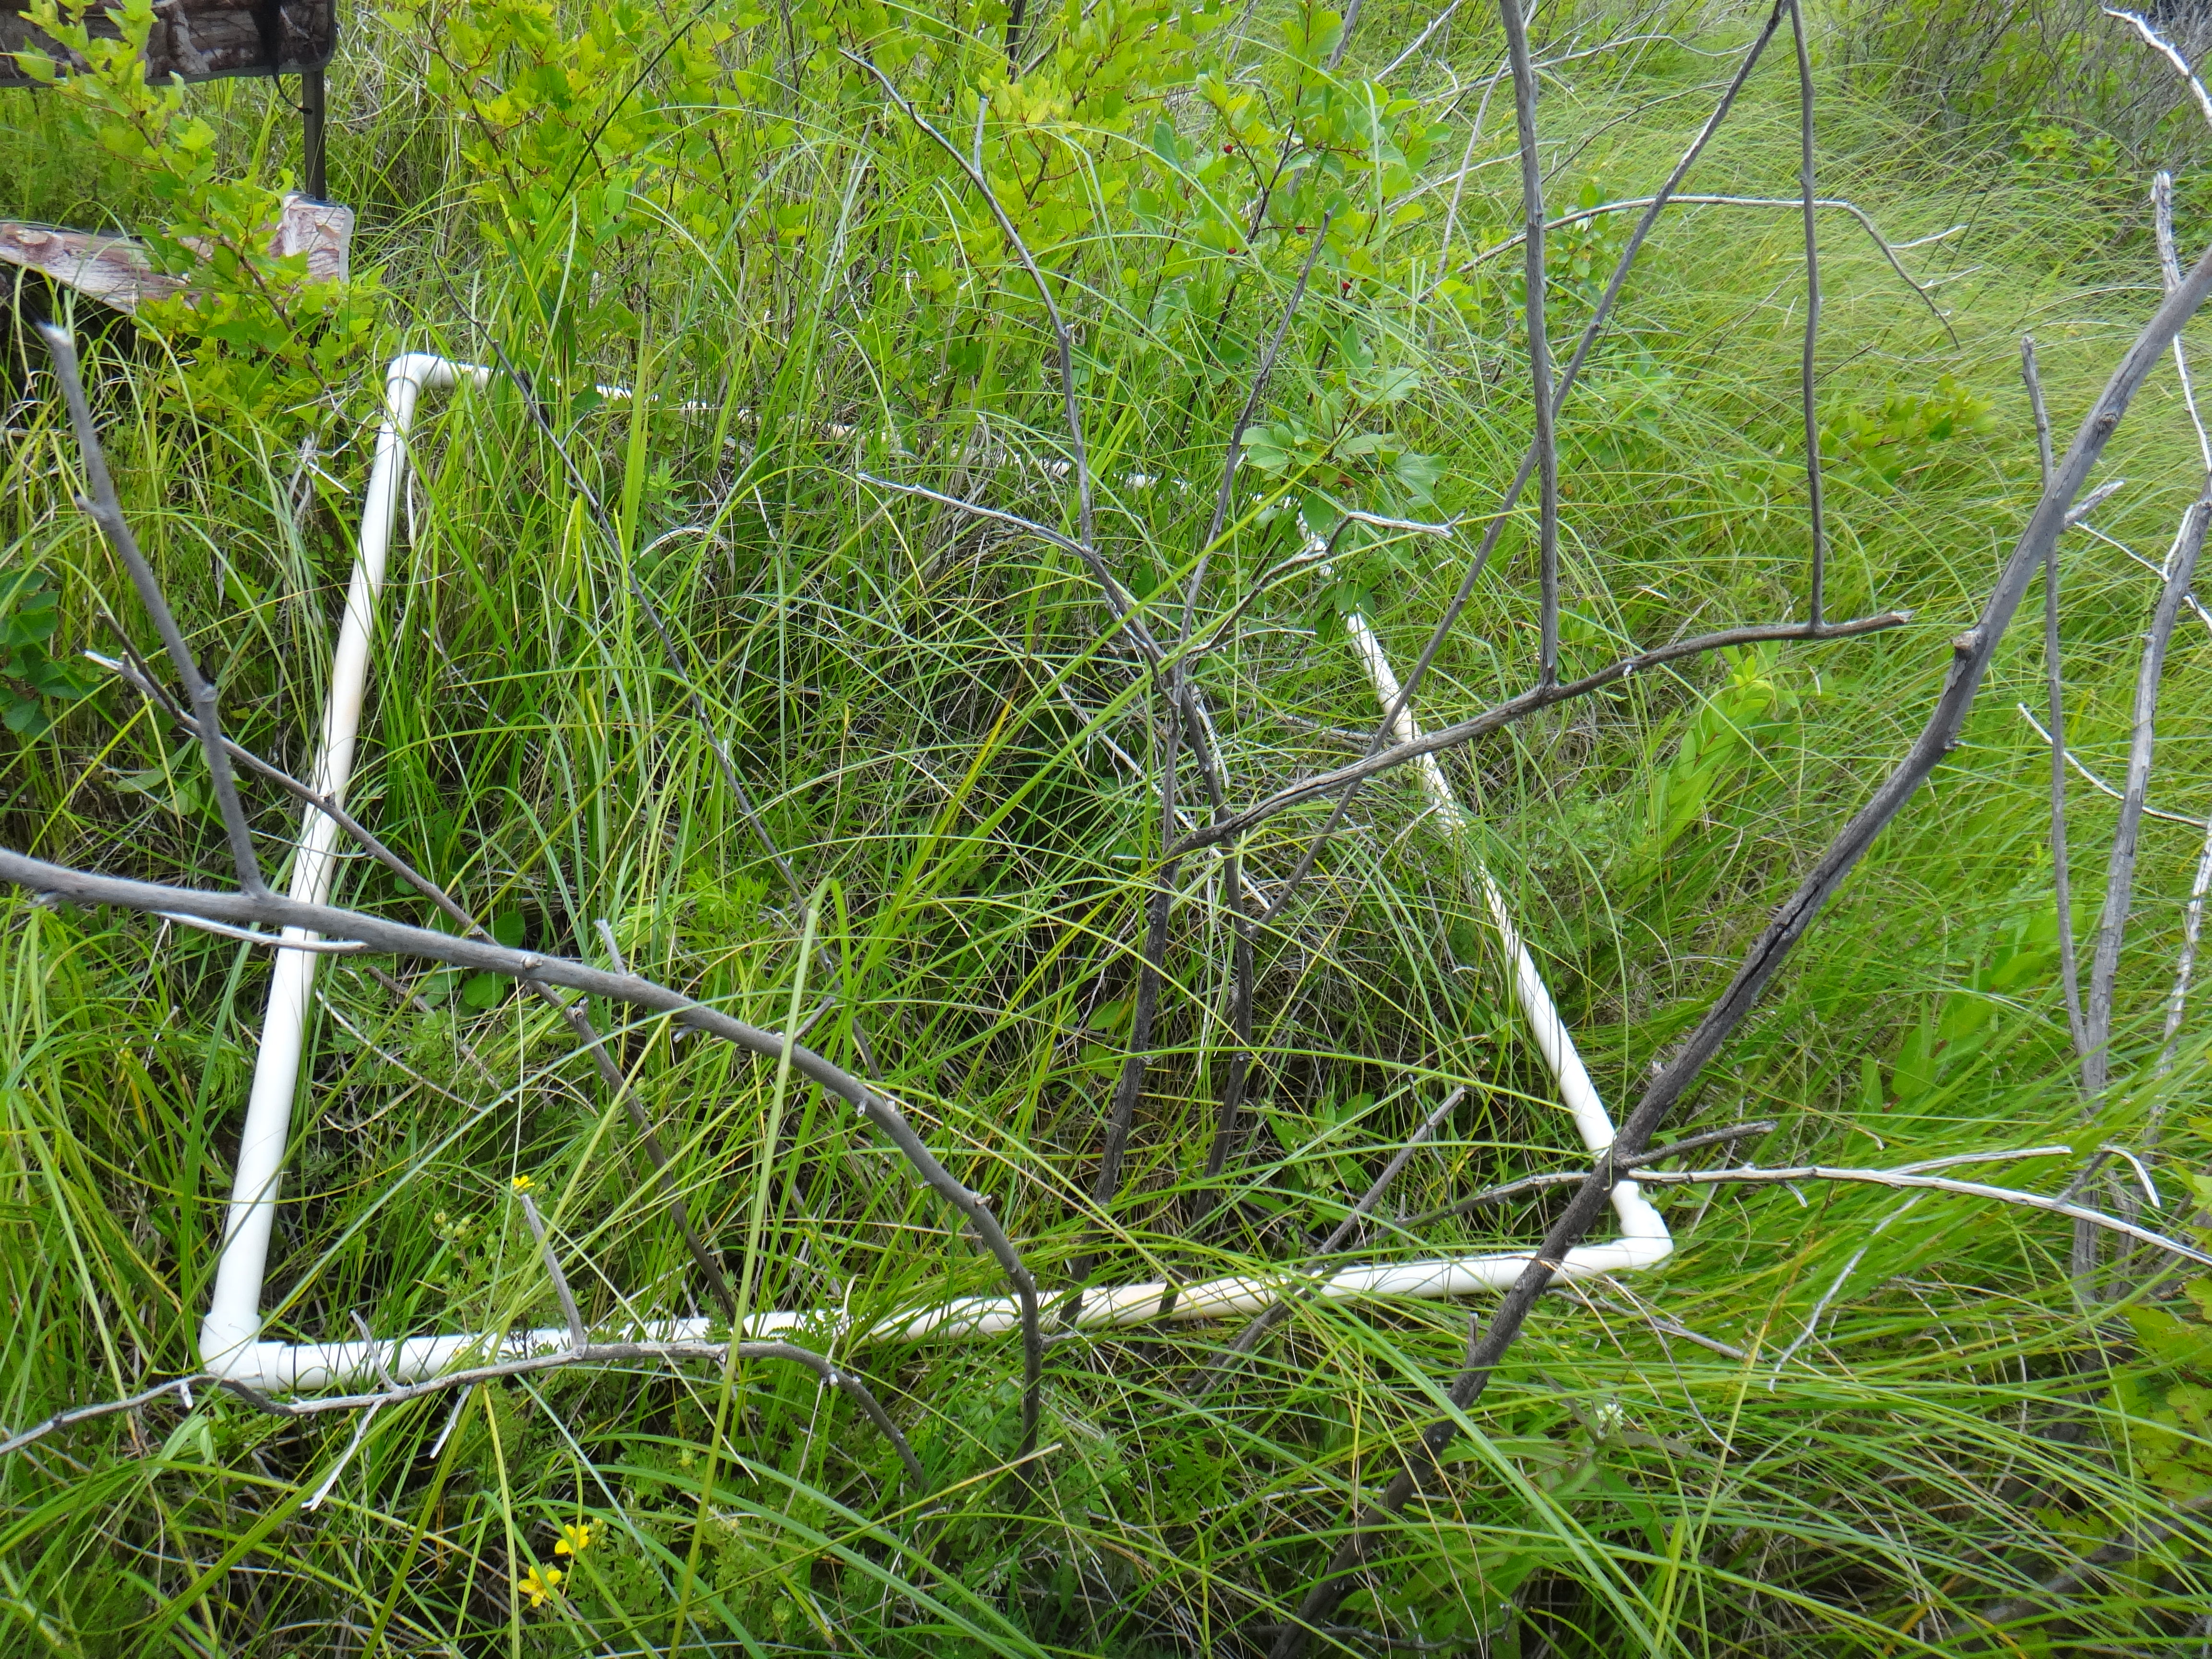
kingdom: Plantae
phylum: Tracheophyta
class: Magnoliopsida
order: Cornales
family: Cornaceae
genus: Cornus
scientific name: Cornus sericea
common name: Red-osier dogwood
